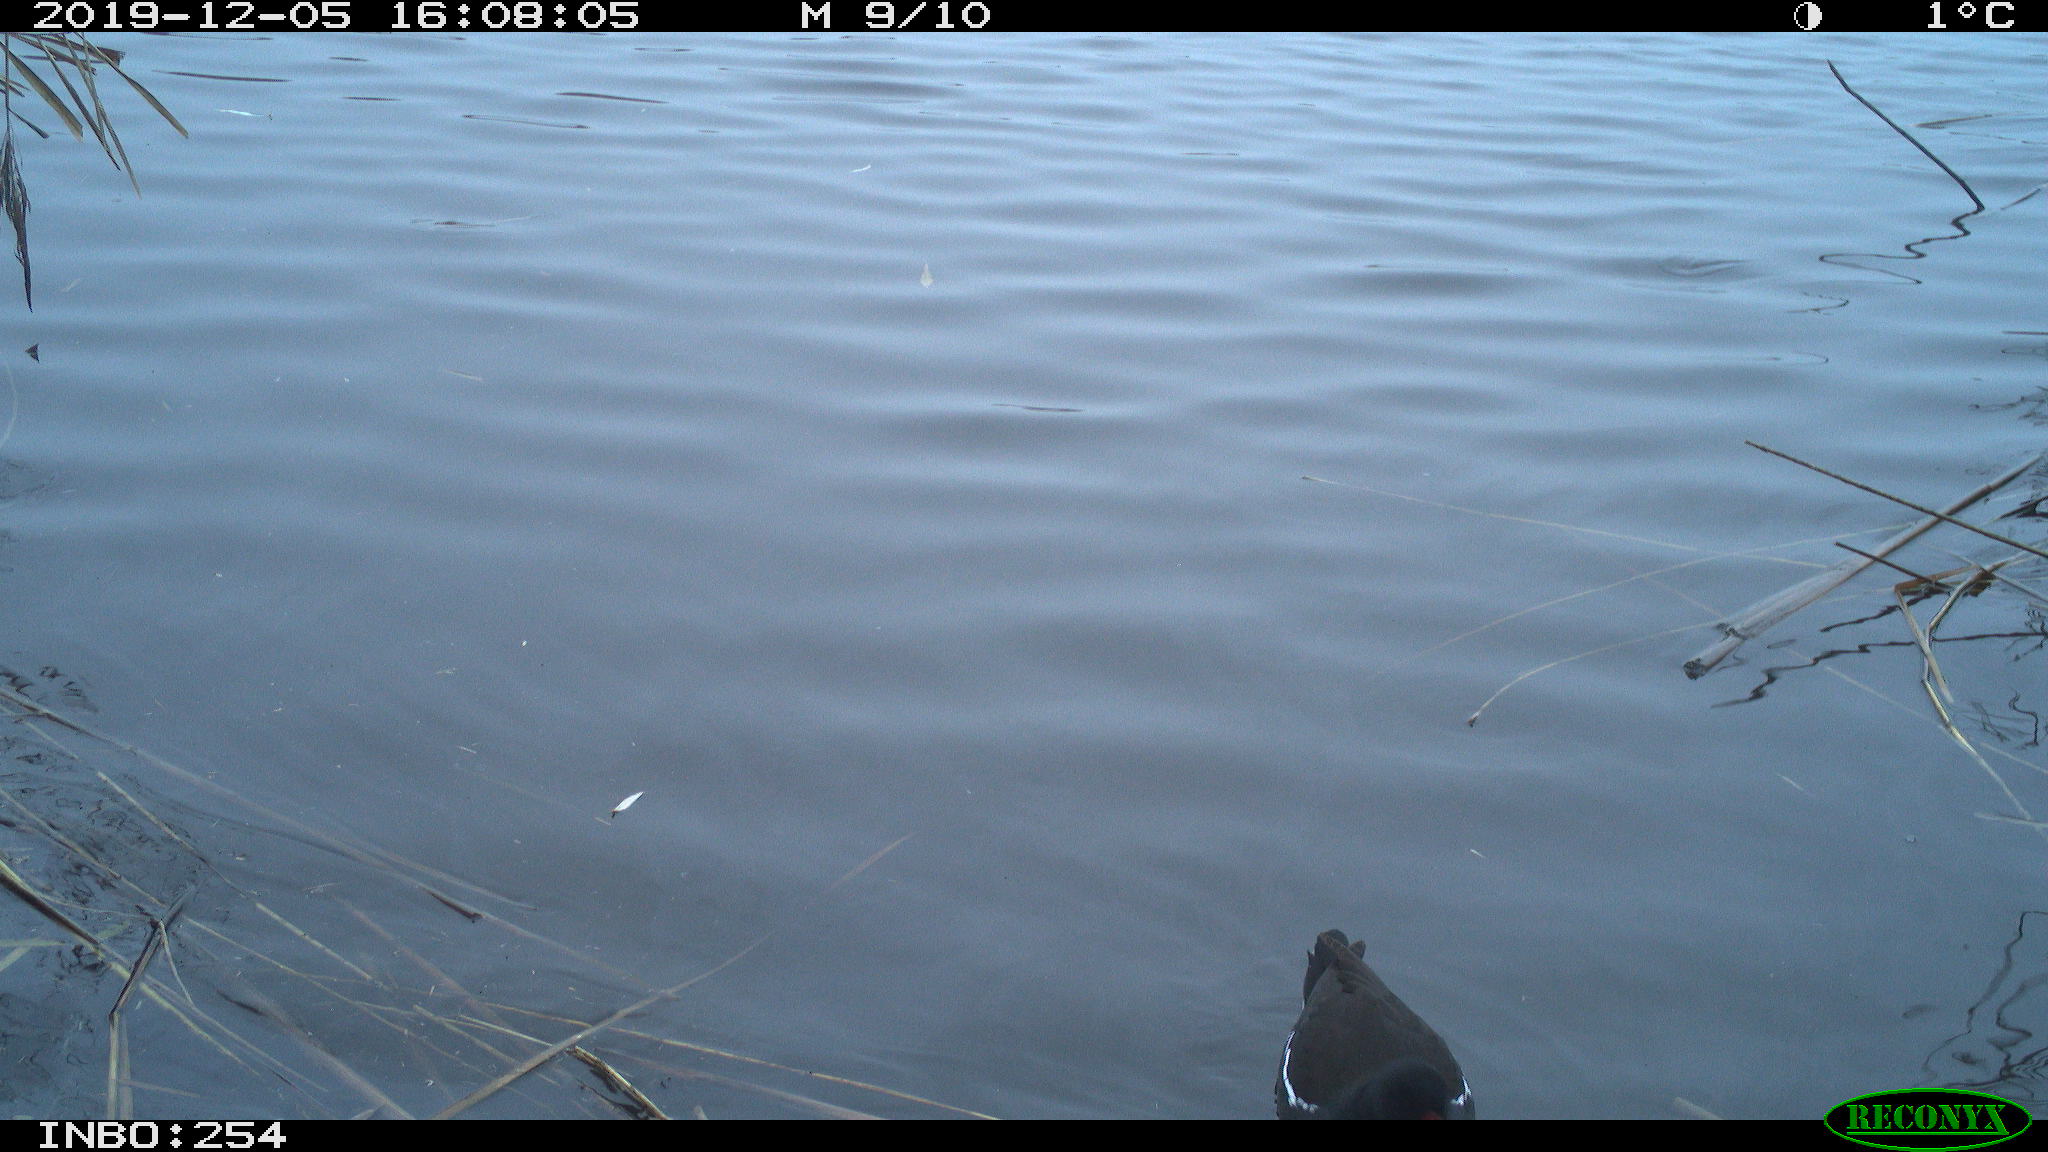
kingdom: Animalia
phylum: Chordata
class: Aves
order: Gruiformes
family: Rallidae
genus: Gallinula
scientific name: Gallinula chloropus
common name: Common moorhen
